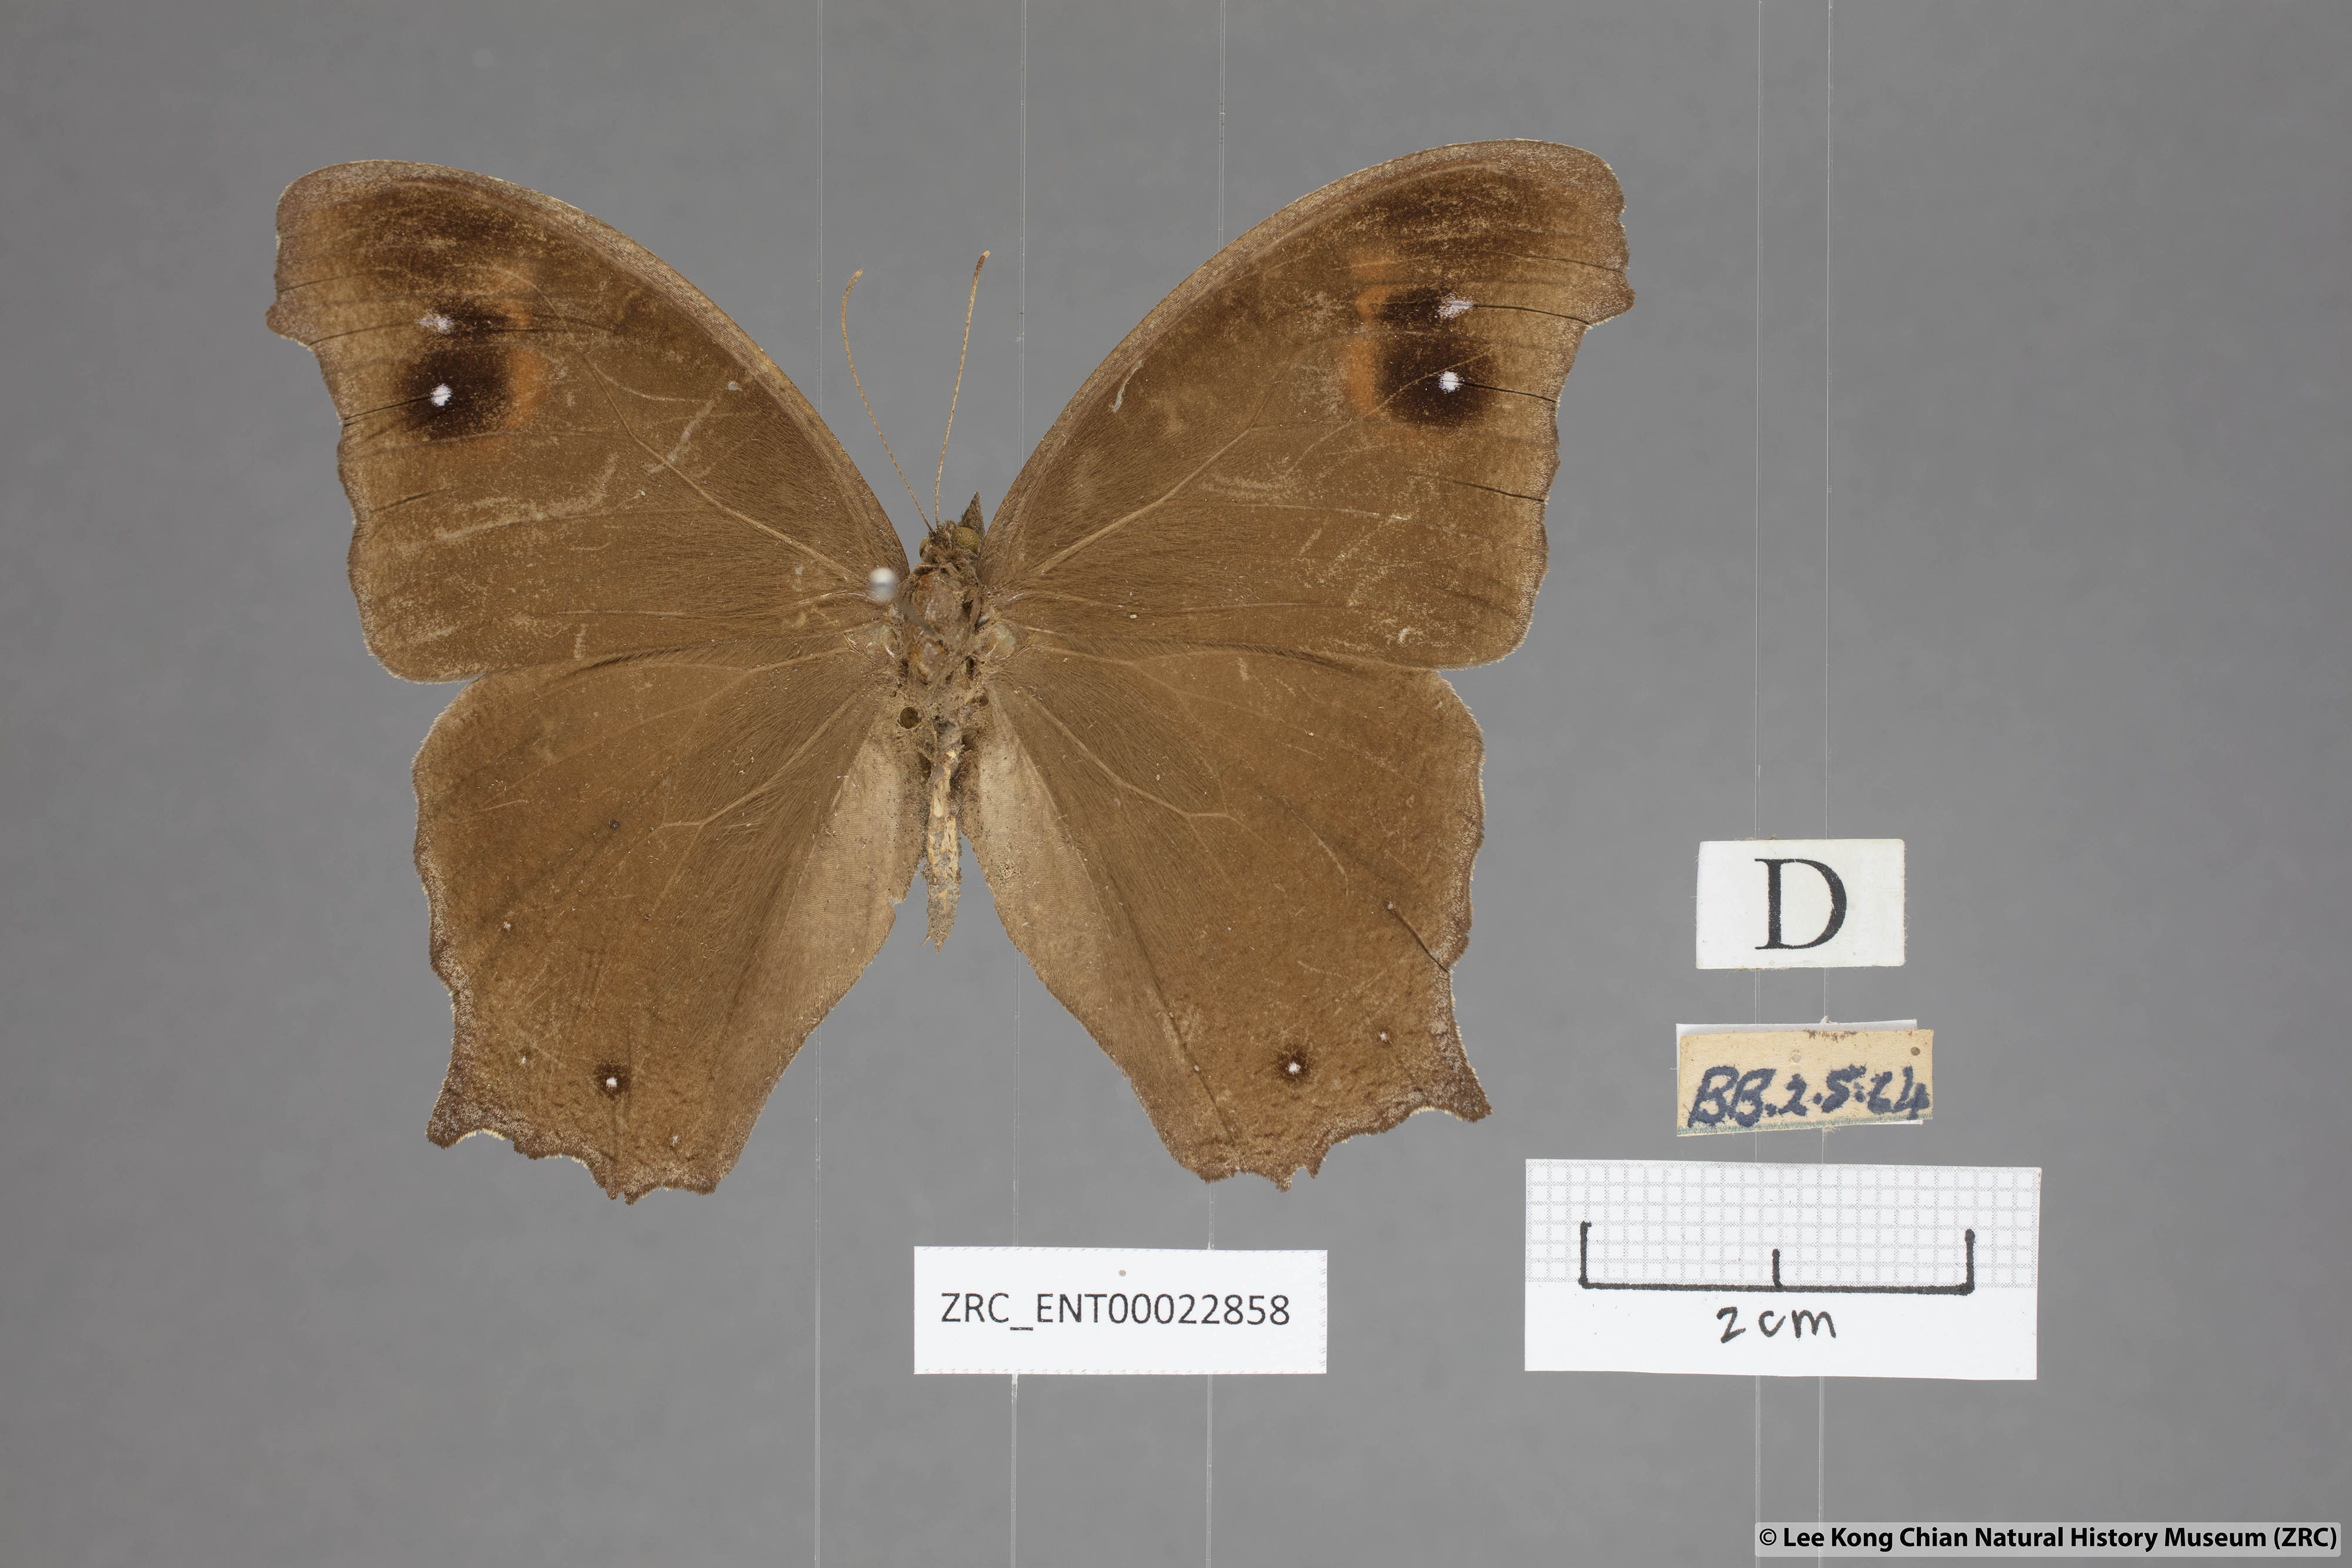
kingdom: Animalia
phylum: Arthropoda
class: Insecta
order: Lepidoptera
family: Nymphalidae
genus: Melanitis
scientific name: Melanitis leda
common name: Twilight brown
